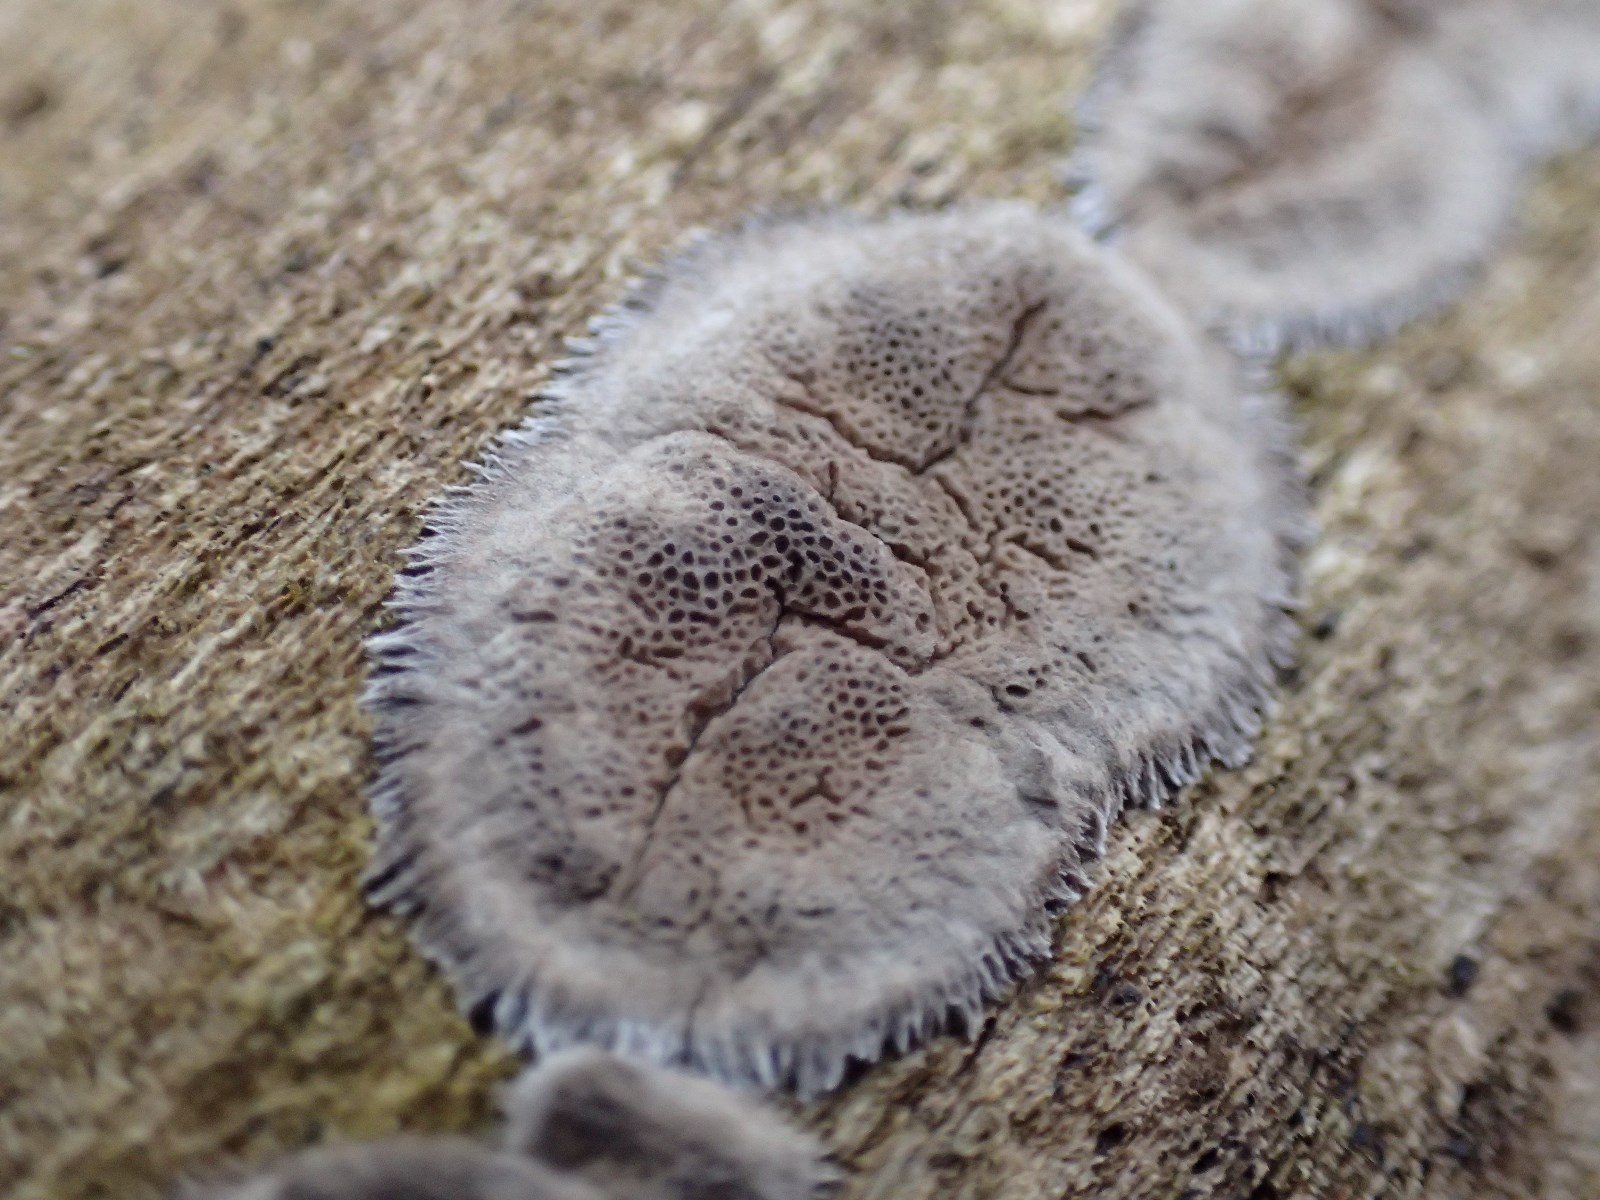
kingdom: Fungi
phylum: Basidiomycota
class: Agaricomycetes
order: Polyporales
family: Phanerochaetaceae
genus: Bjerkandera
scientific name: Bjerkandera adusta
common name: sveden sodporesvamp
